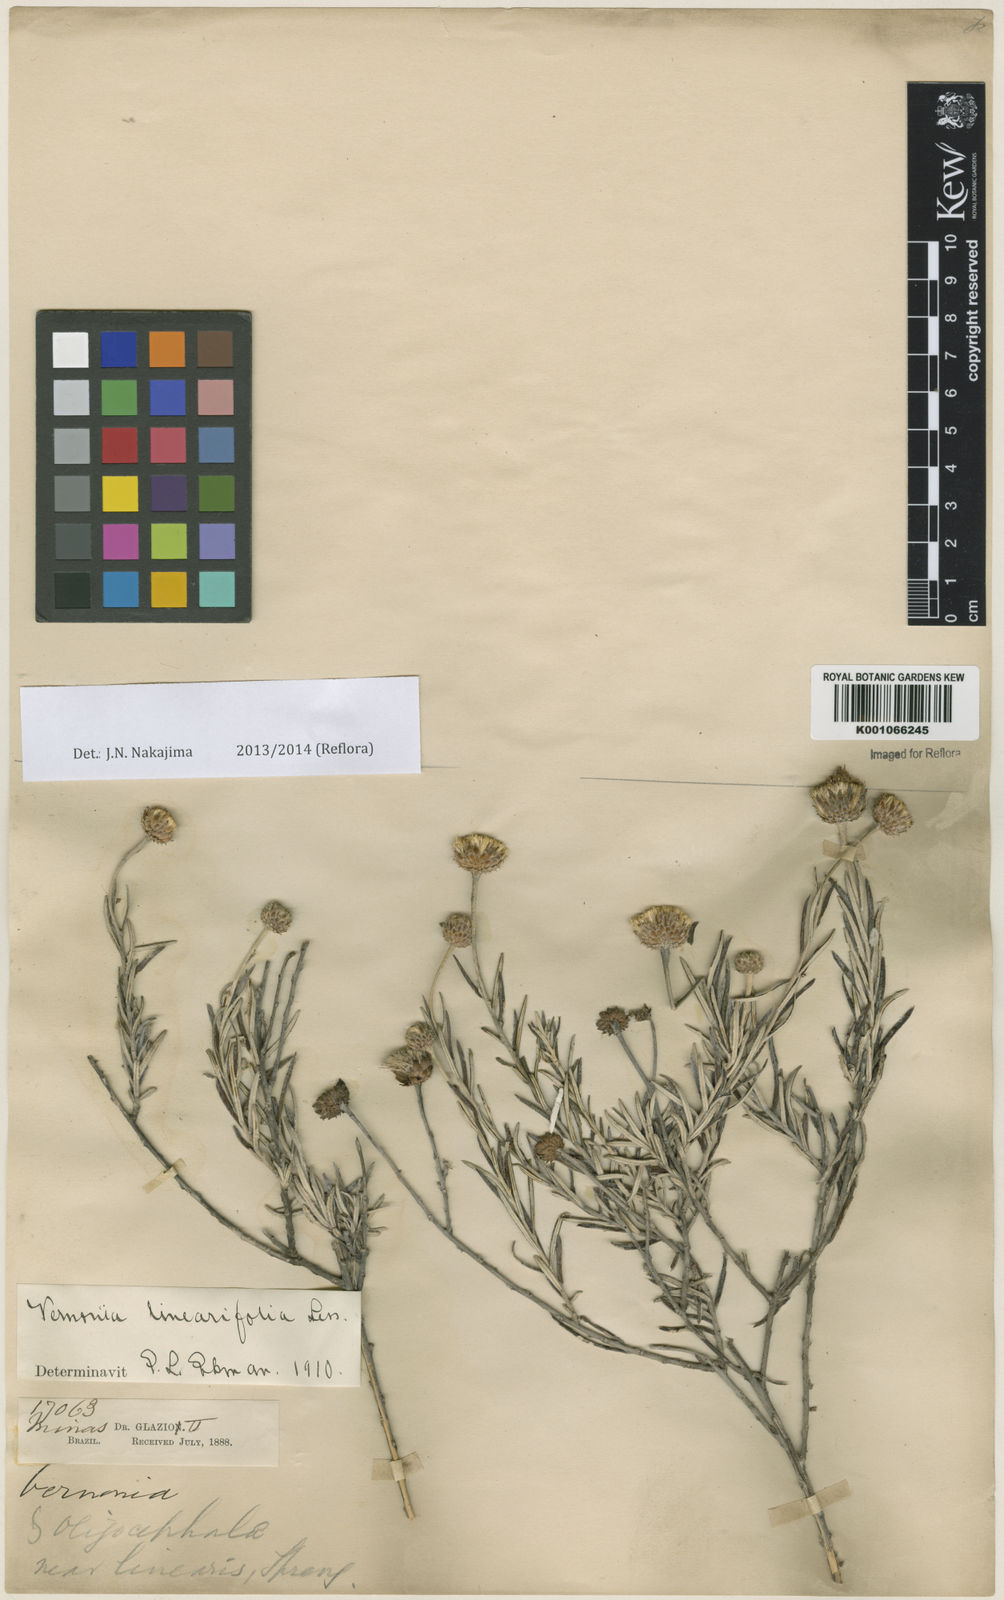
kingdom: Plantae
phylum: Tracheophyta
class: Magnoliopsida
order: Asterales
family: Asteraceae
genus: Lessingianthus
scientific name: Lessingianthus linearifolius
